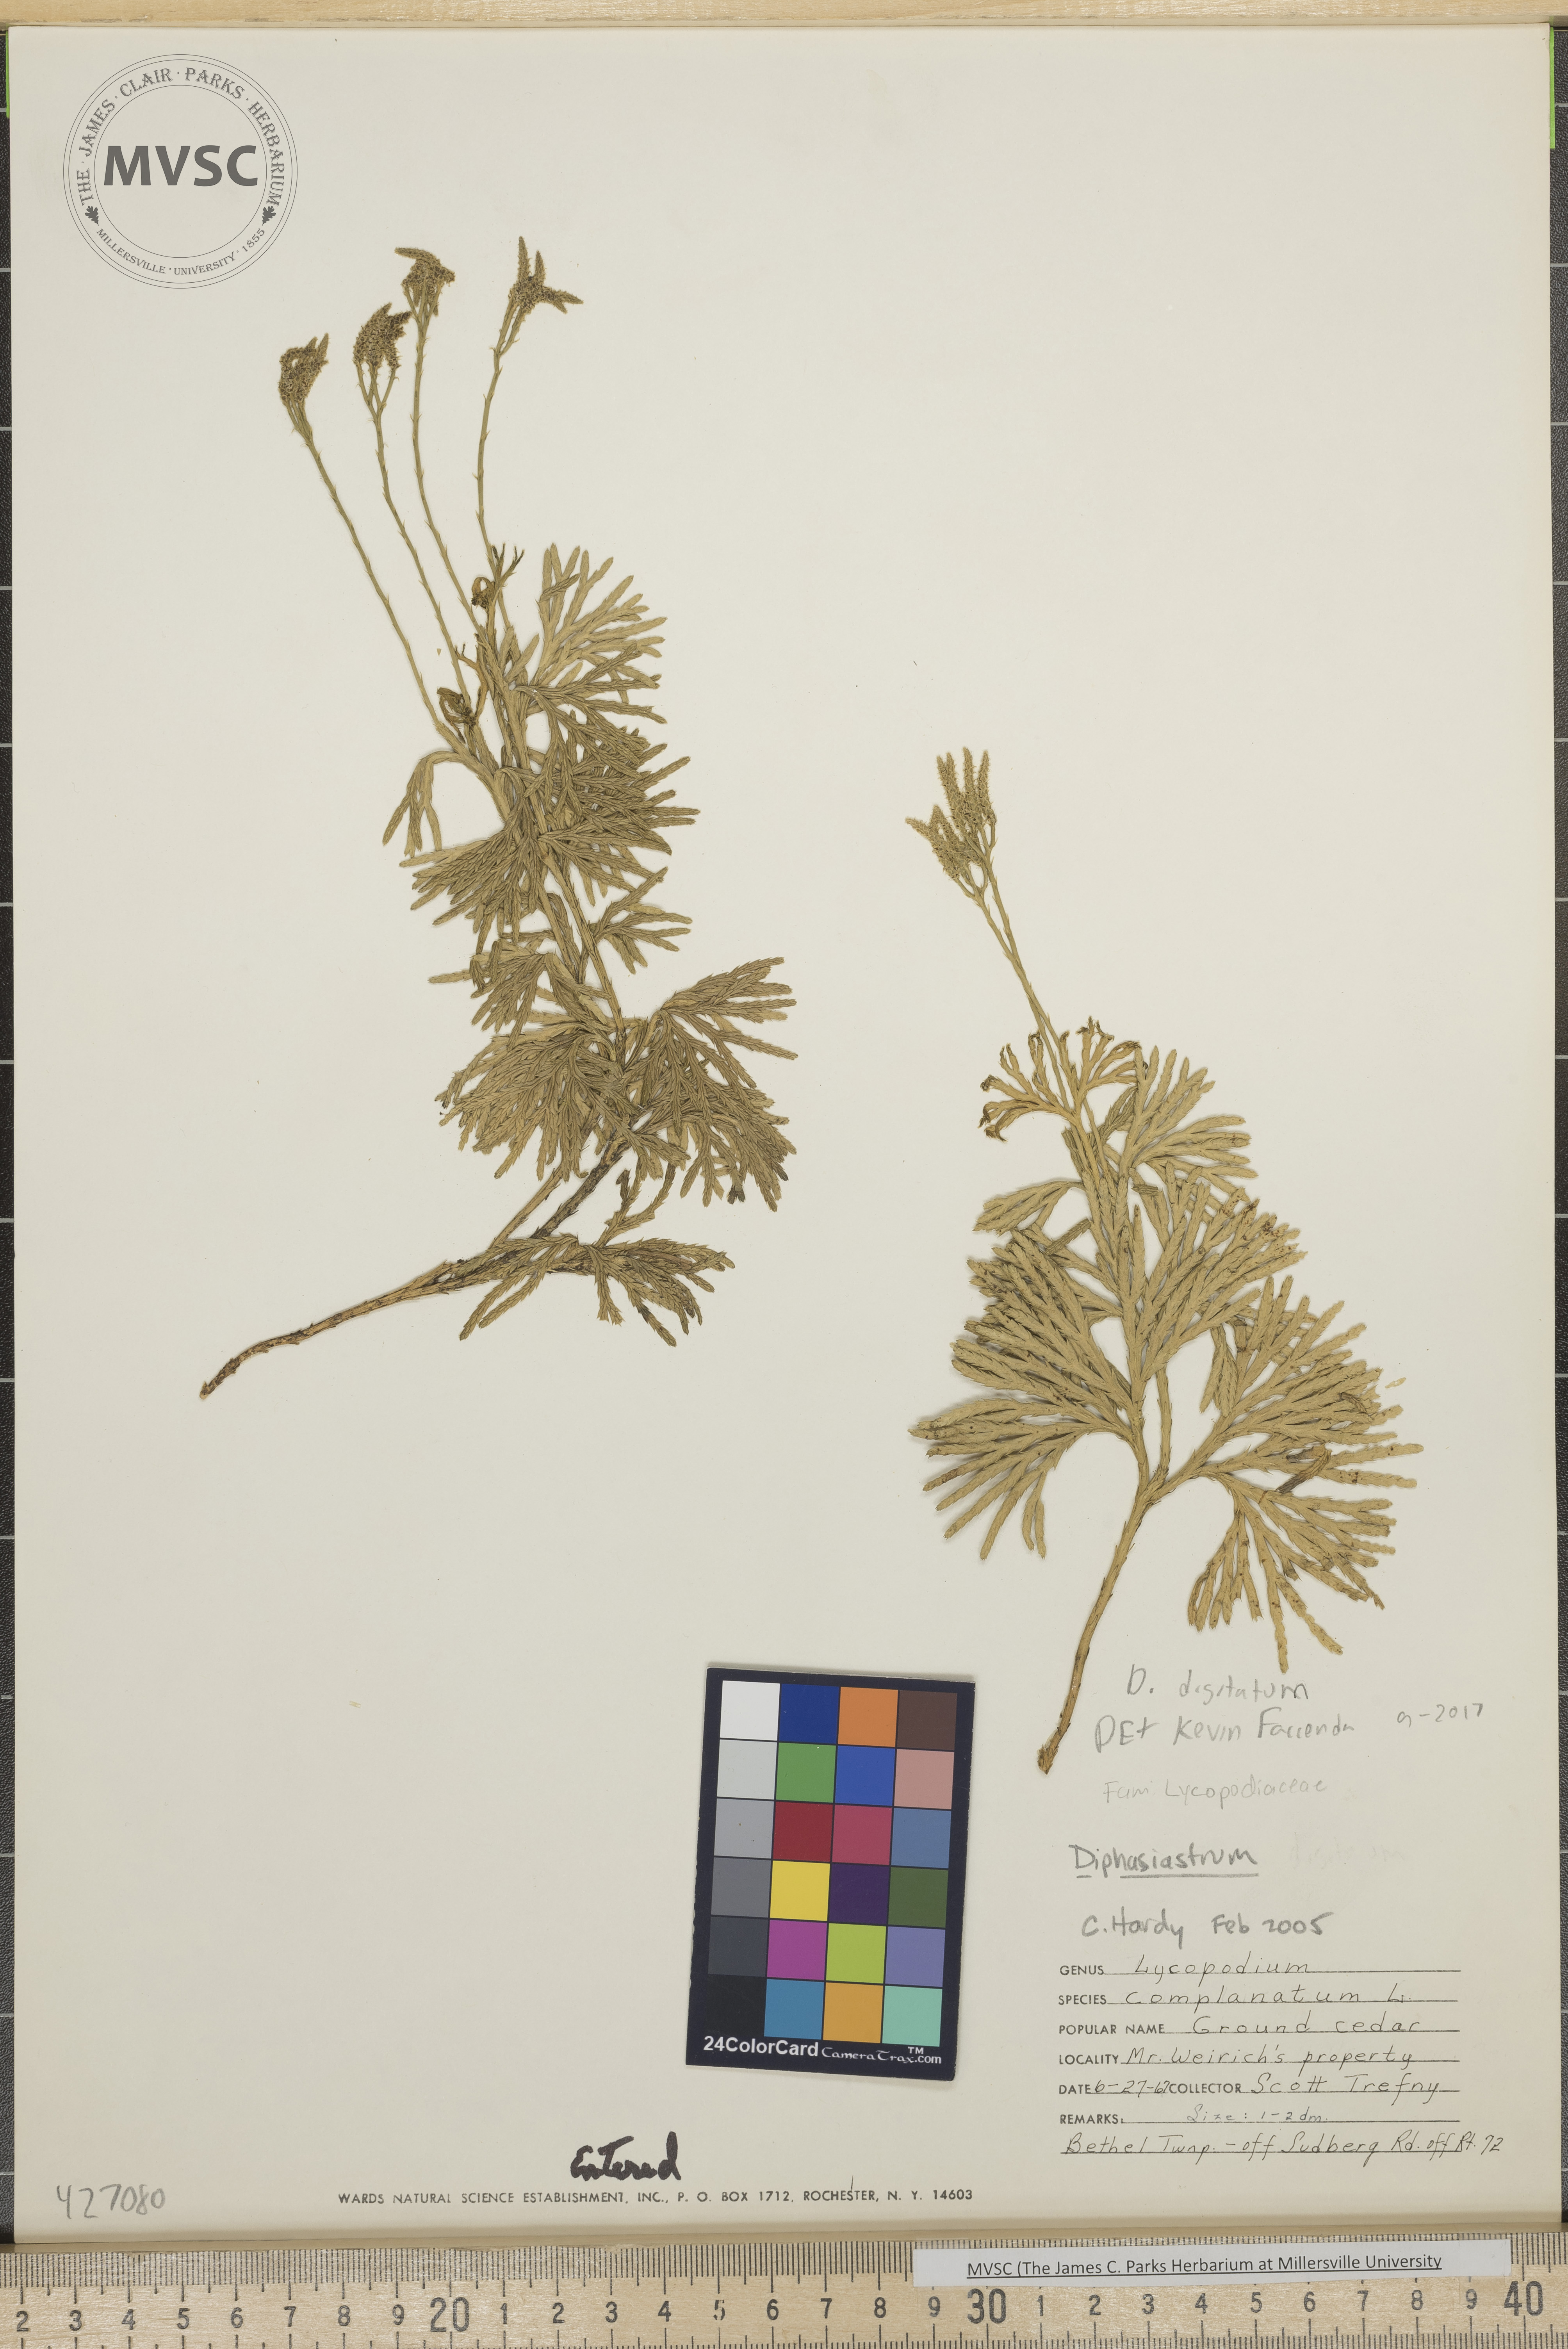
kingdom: Plantae
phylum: Tracheophyta
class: Lycopodiopsida
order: Lycopodiales
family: Lycopodiaceae
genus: Diphasiastrum
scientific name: Diphasiastrum digitatum
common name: Southern running-pine
